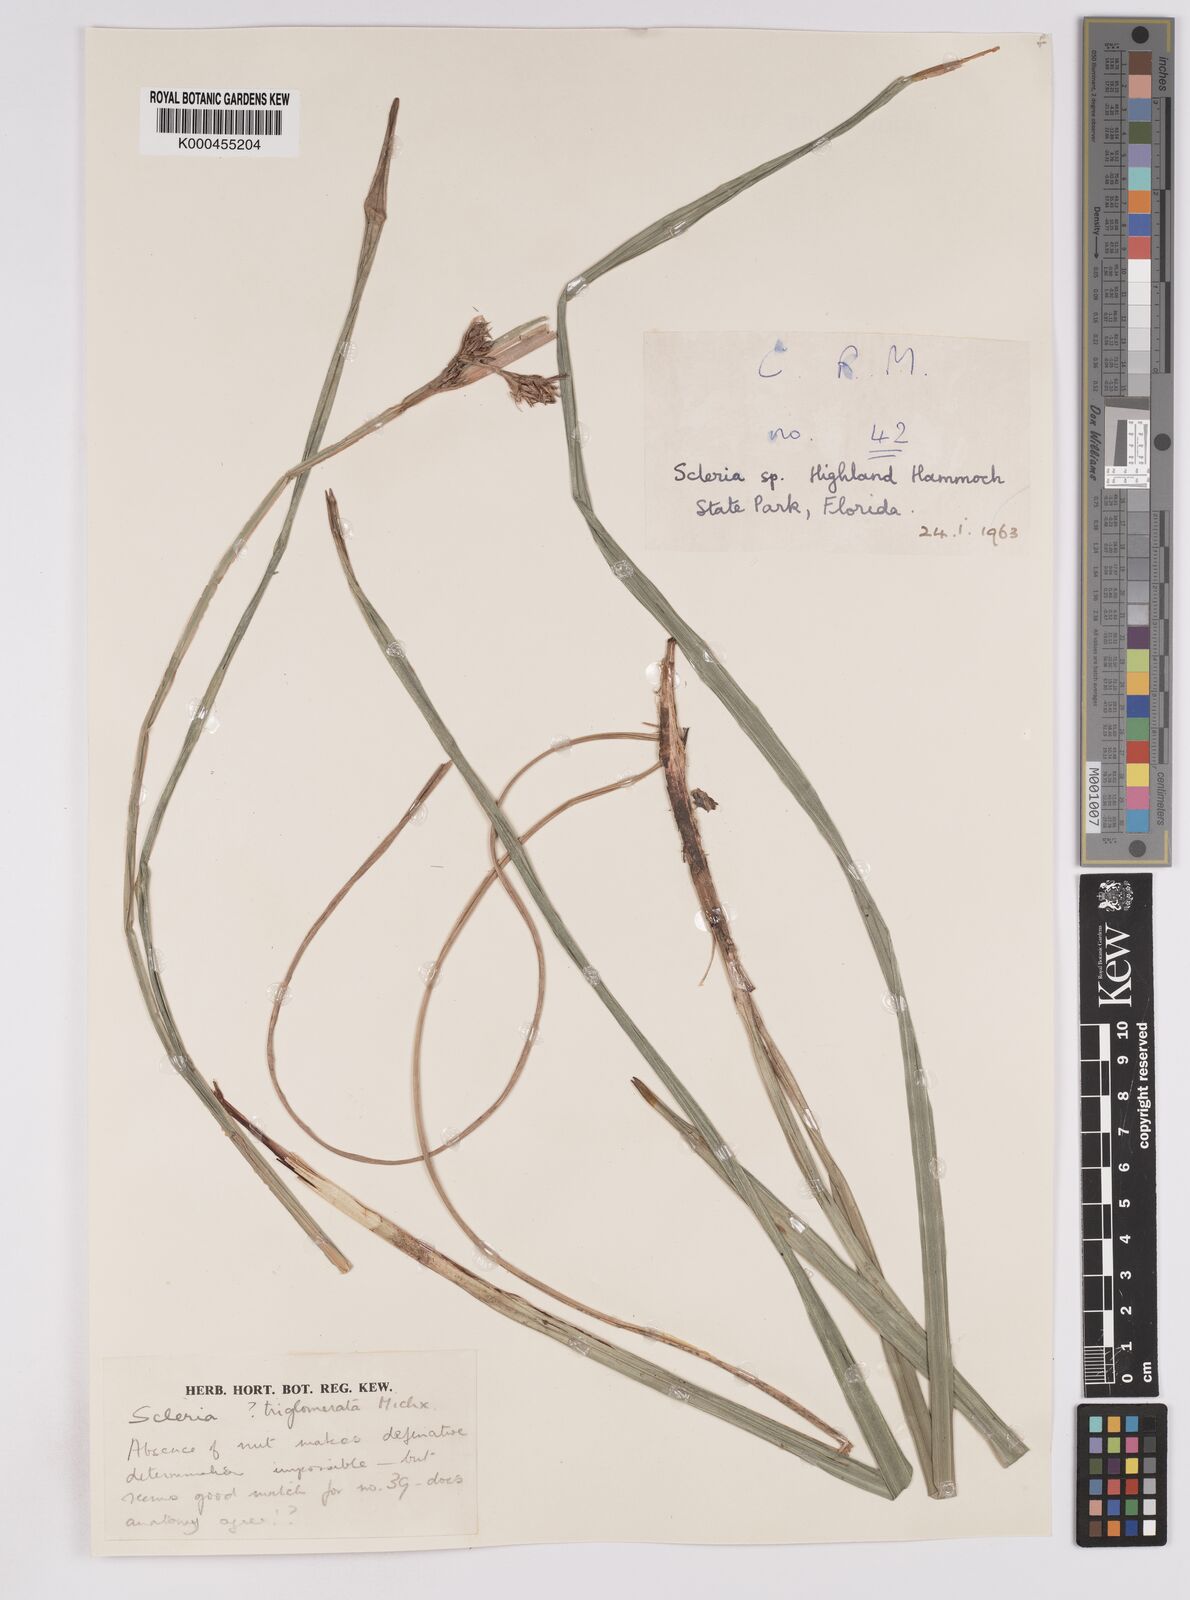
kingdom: Plantae
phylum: Tracheophyta
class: Liliopsida
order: Poales
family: Cyperaceae
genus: Scleria
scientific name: Scleria triglomerata
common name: Whip nutrush
